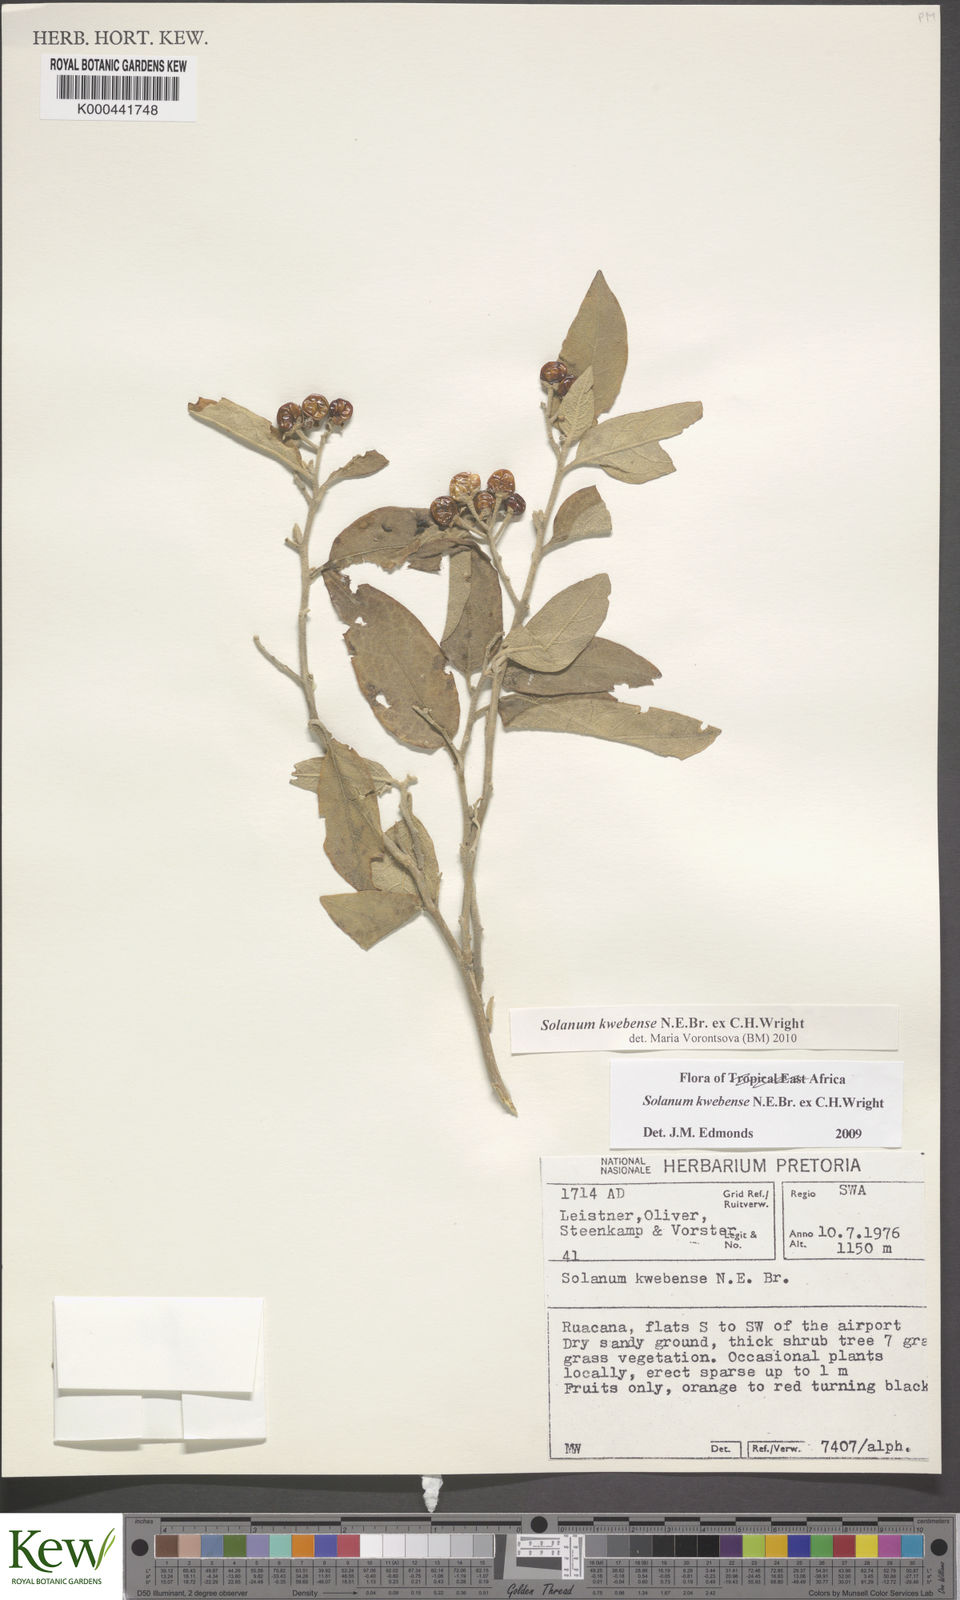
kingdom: Plantae
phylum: Tracheophyta
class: Magnoliopsida
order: Solanales
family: Solanaceae
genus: Solanum
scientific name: Solanum tettense
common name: Mozambique bitter apple
